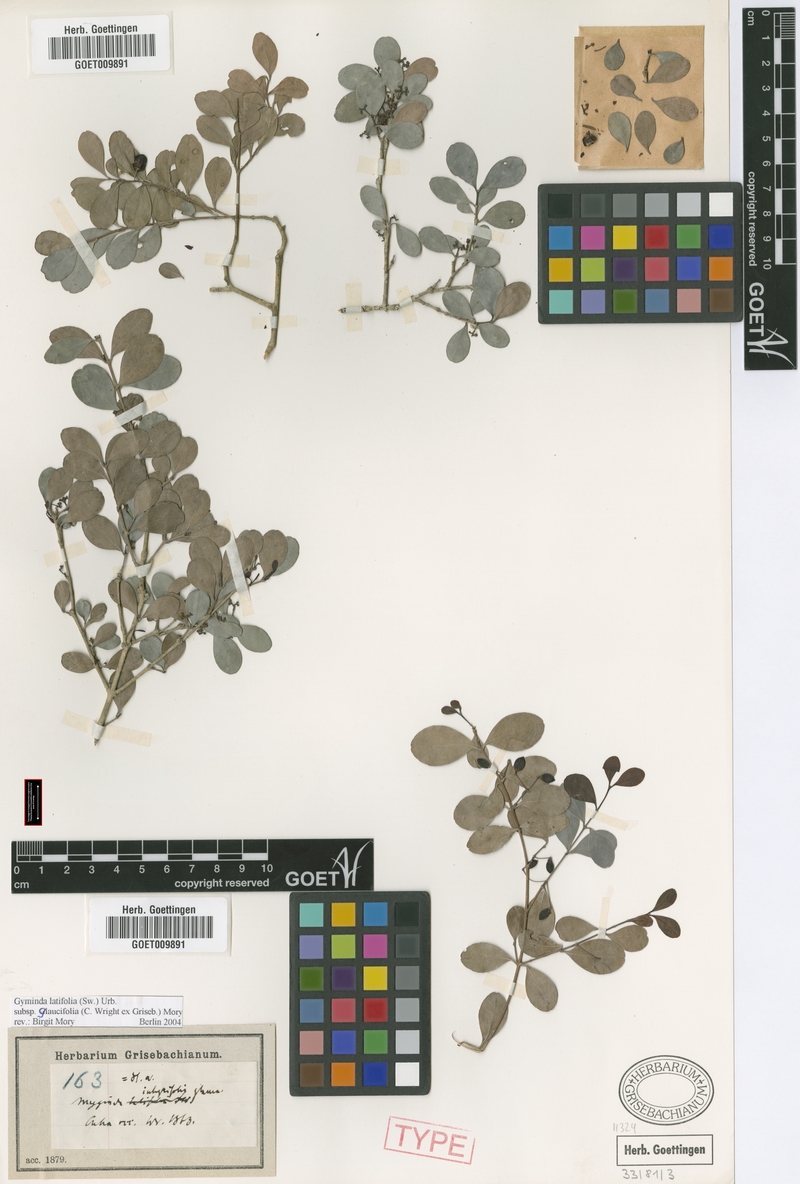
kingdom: Plantae
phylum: Tracheophyta
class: Magnoliopsida
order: Celastrales
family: Celastraceae
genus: Gyminda
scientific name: Gyminda latifolia
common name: False boxwood
